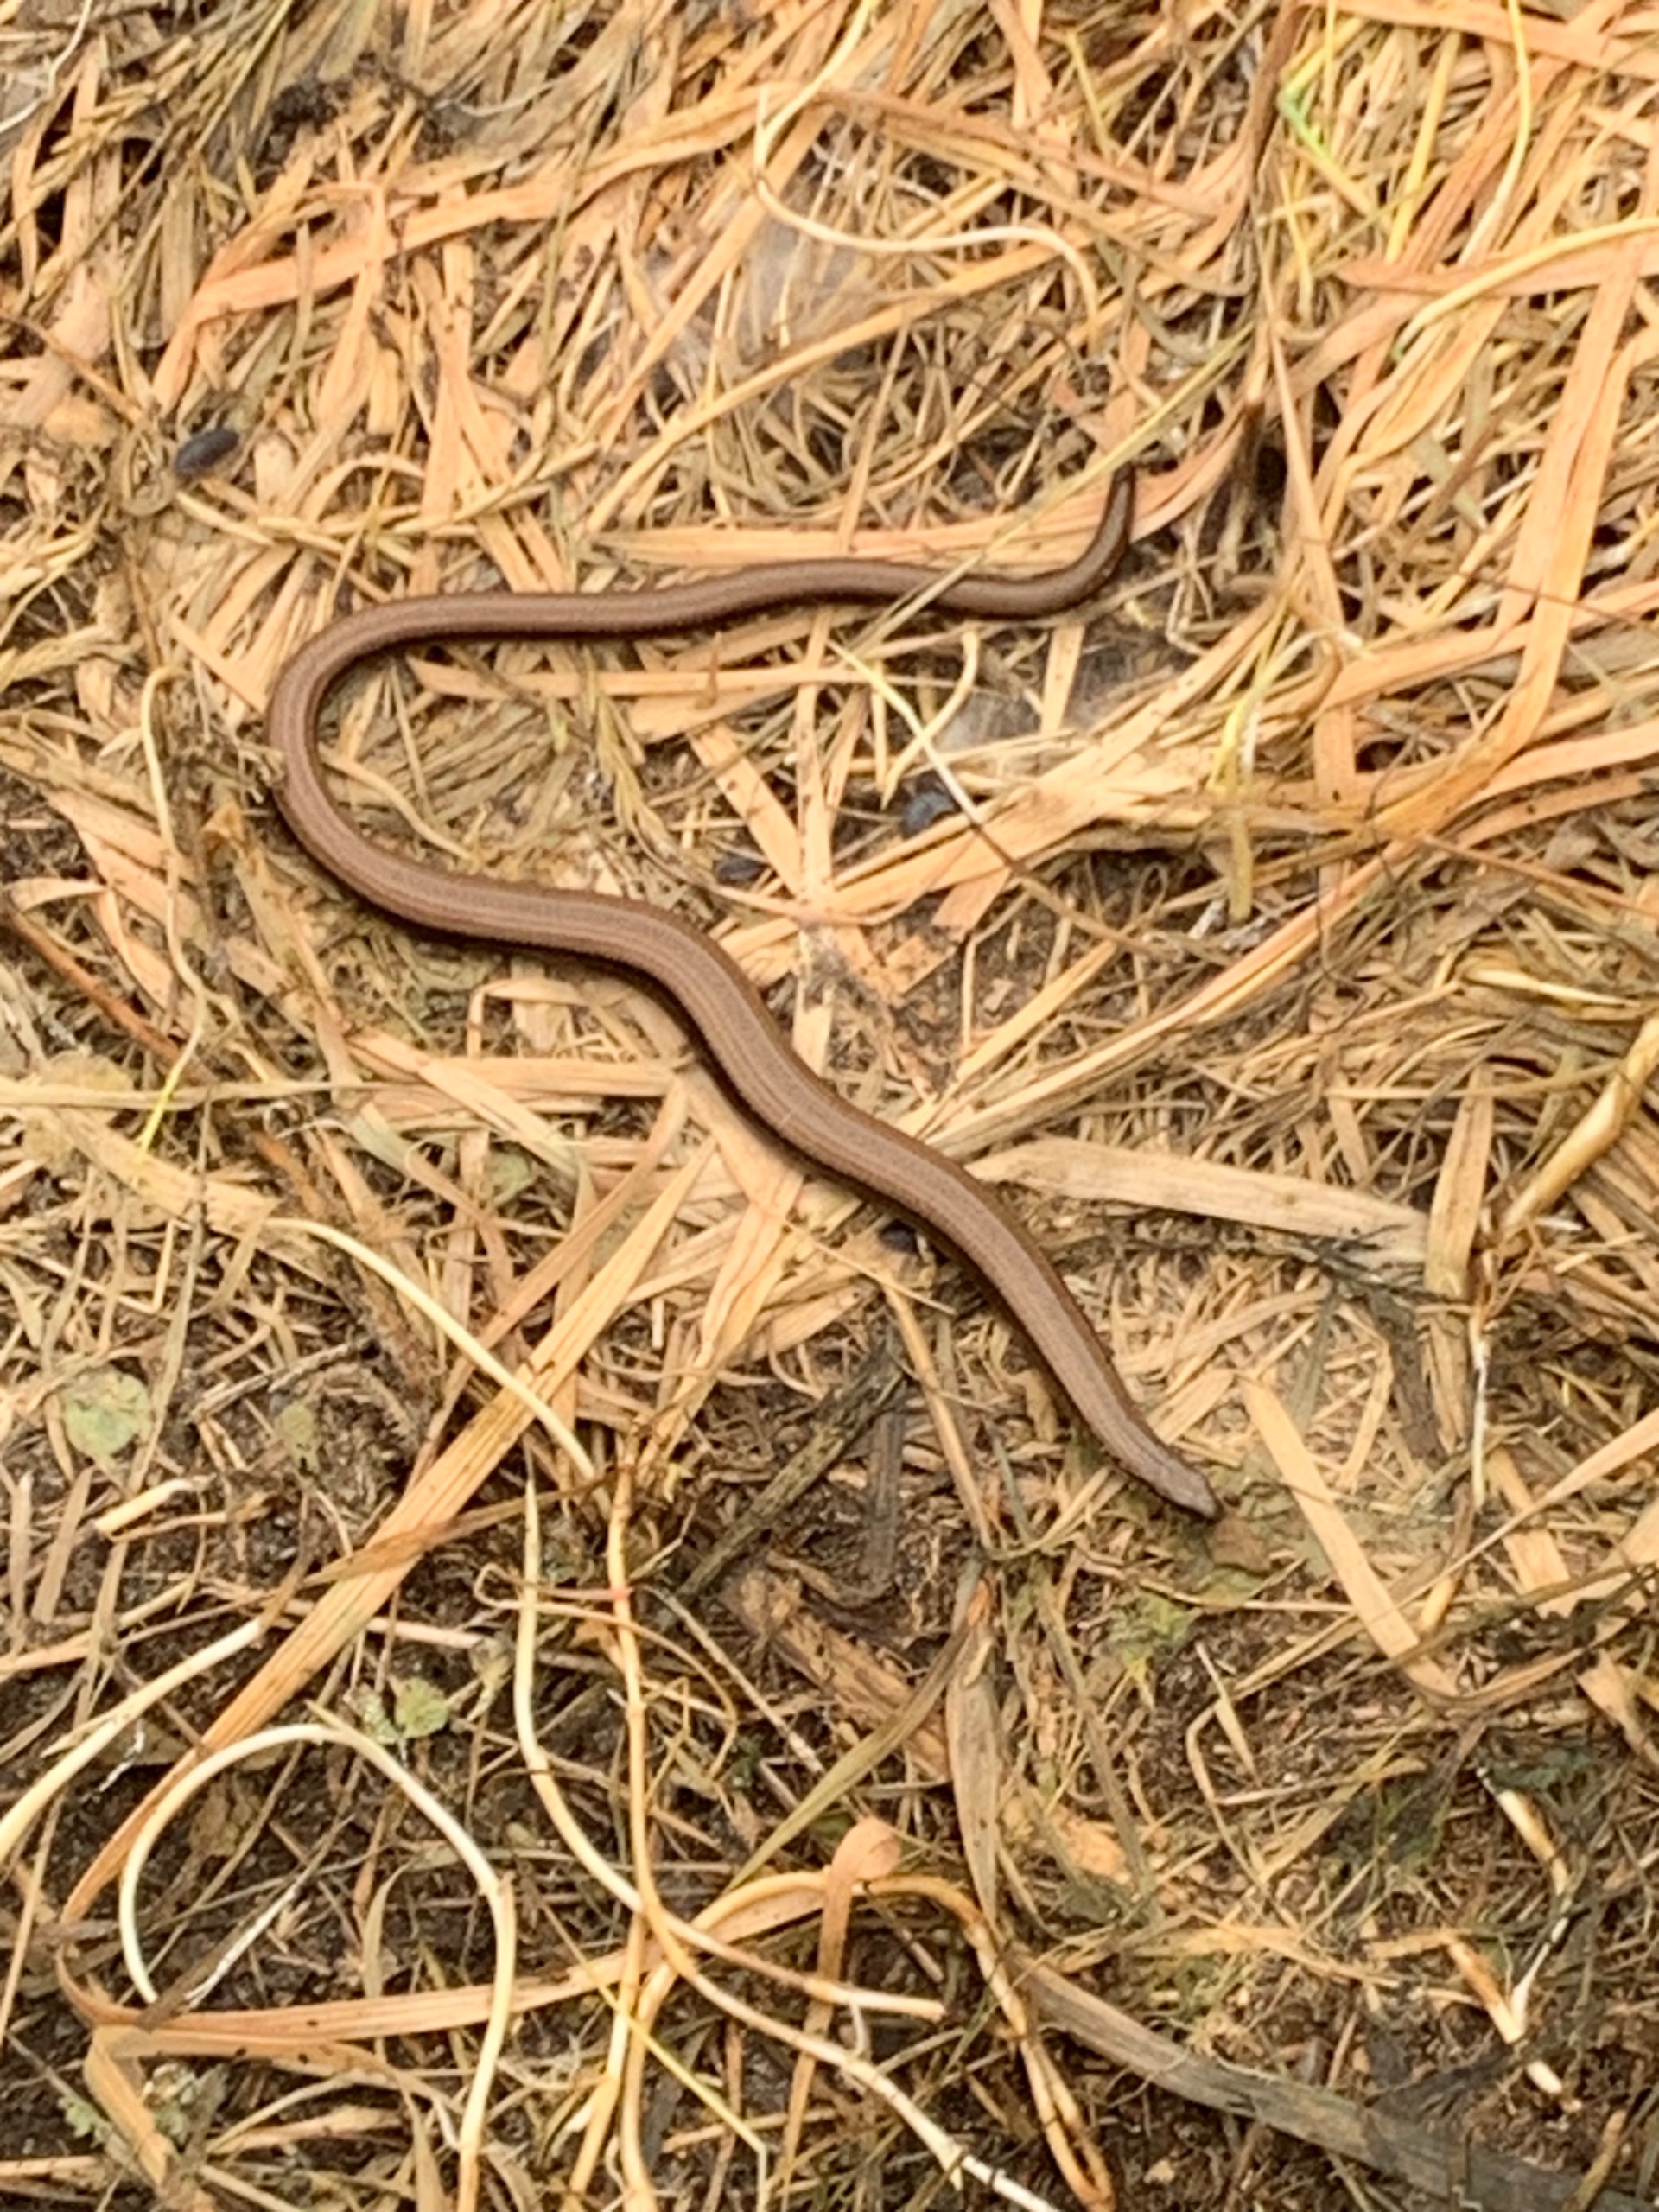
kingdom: Animalia
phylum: Chordata
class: Squamata
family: Anguidae
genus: Anguis
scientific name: Anguis fragilis
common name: Stålorm
